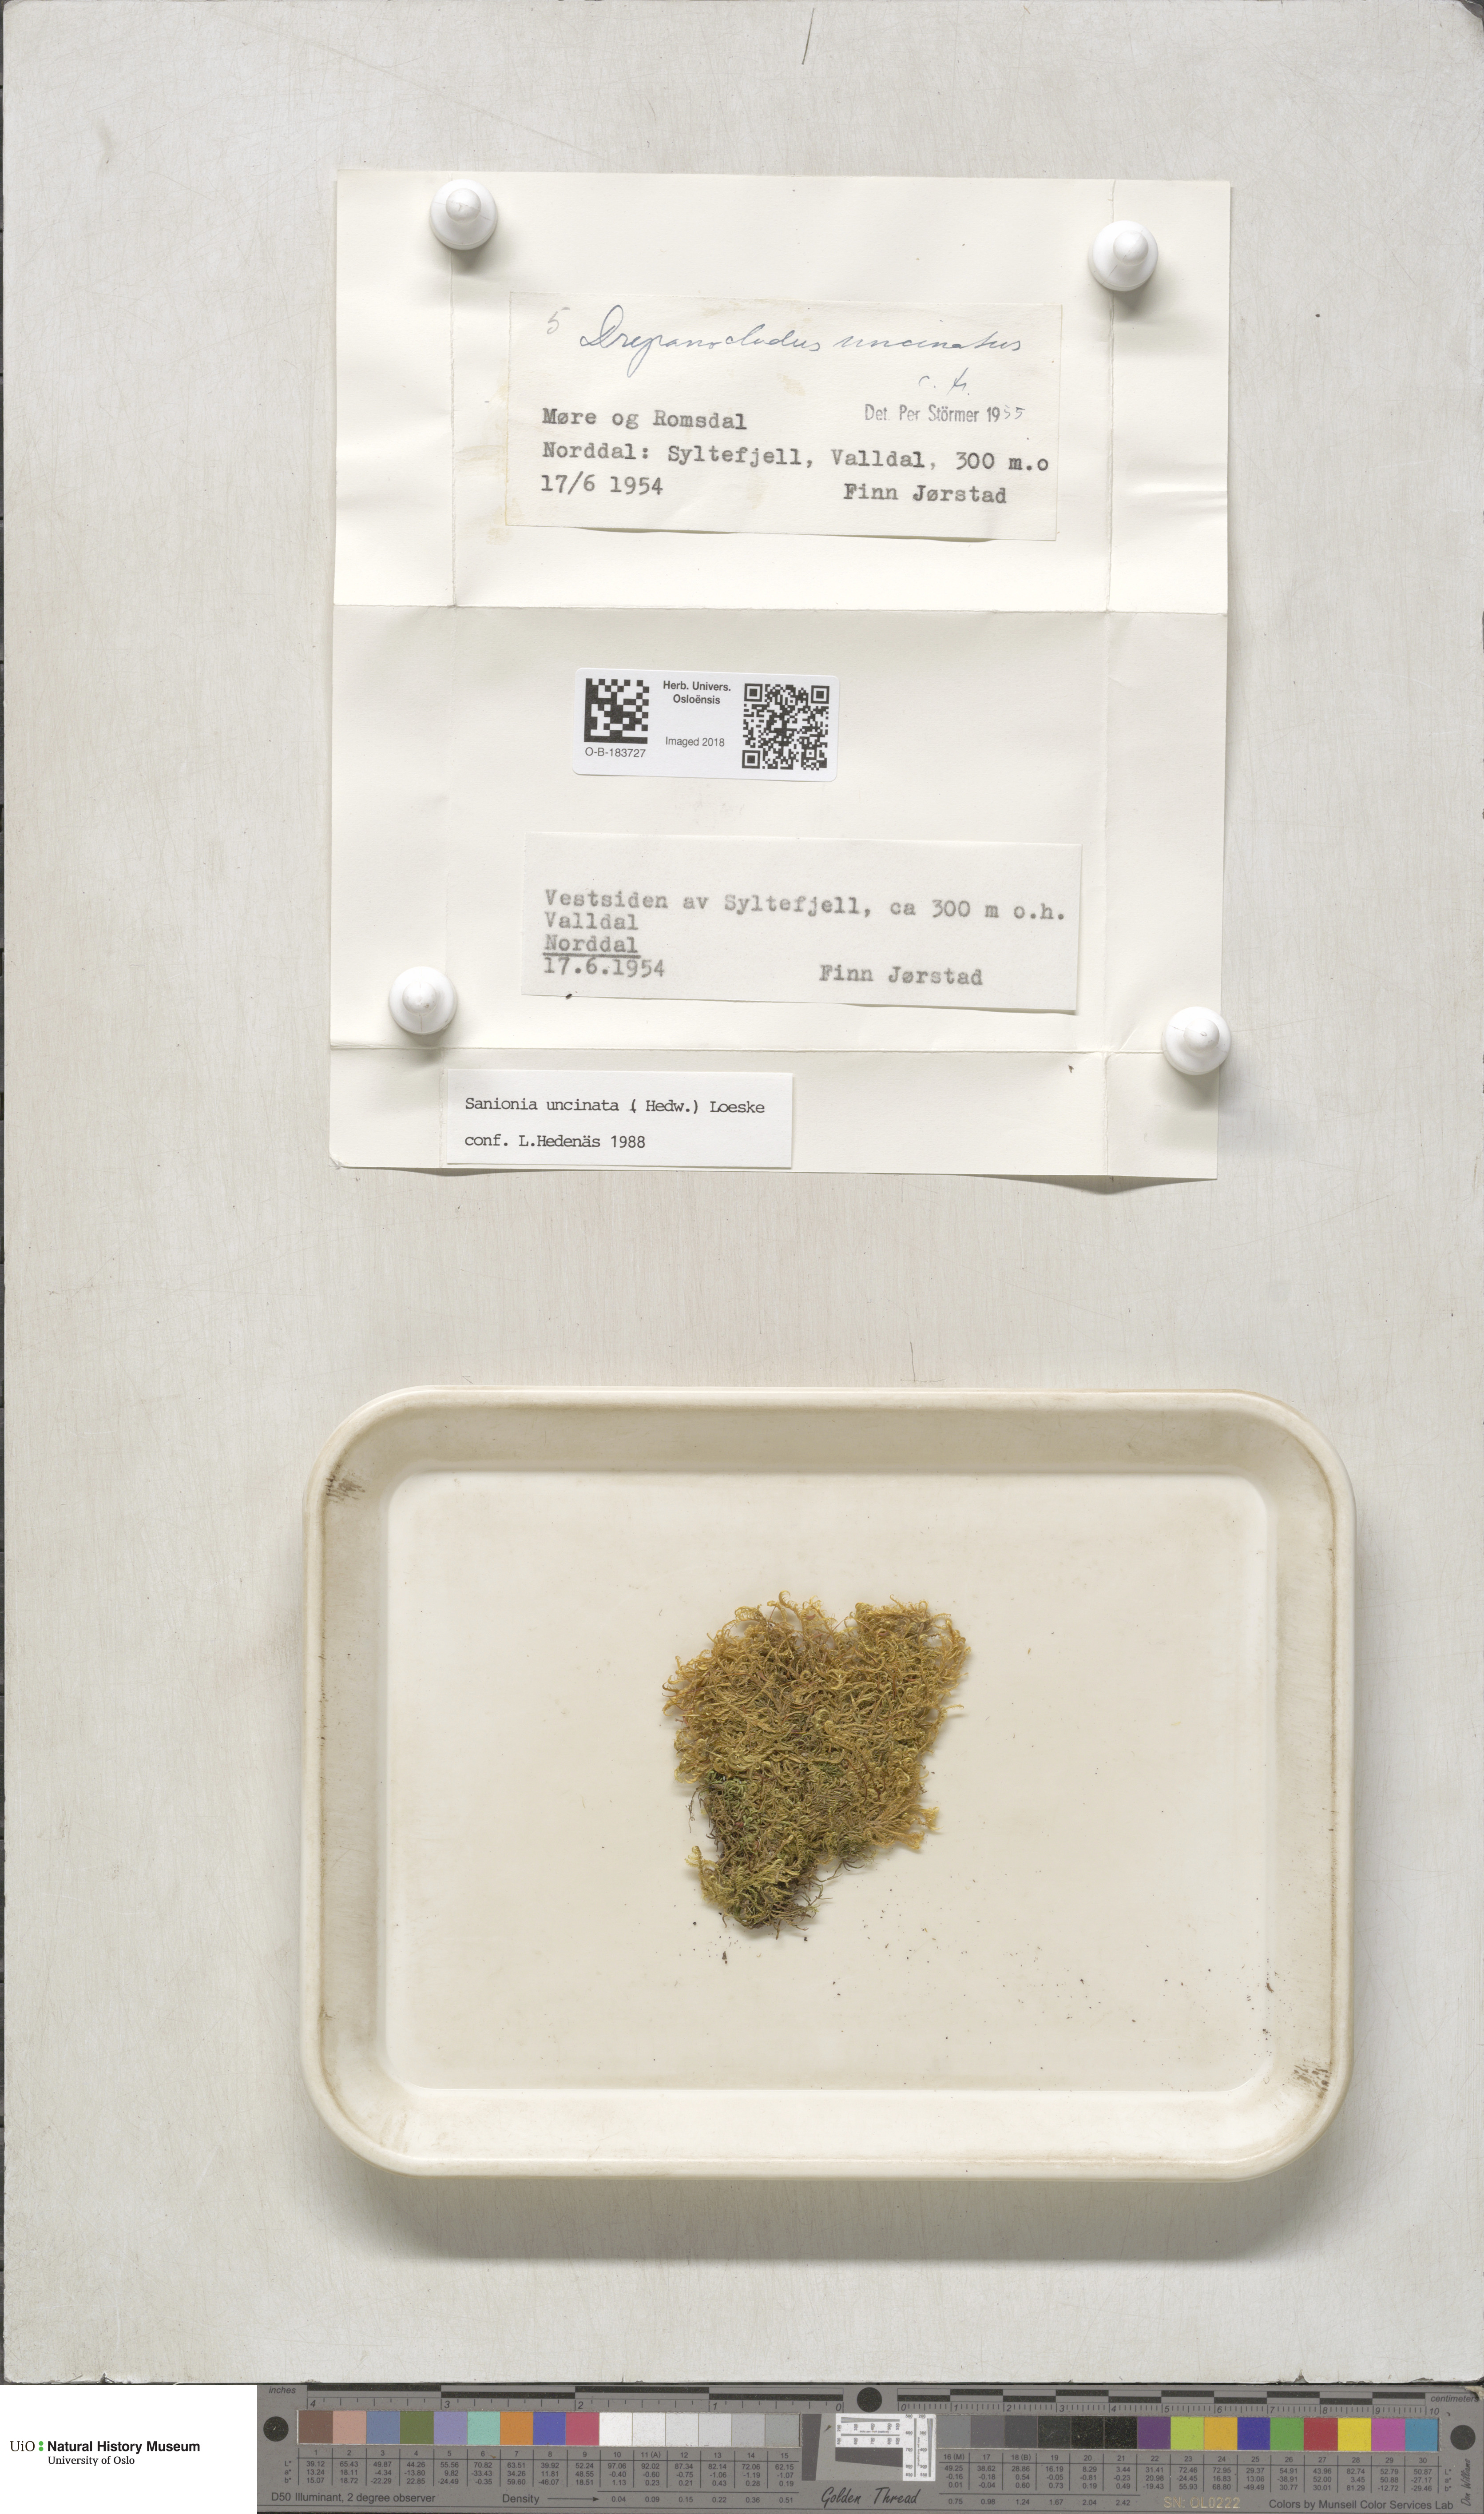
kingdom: Plantae
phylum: Bryophyta
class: Bryopsida
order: Hypnales
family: Scorpidiaceae
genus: Sanionia
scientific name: Sanionia uncinata
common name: Sickle moss
